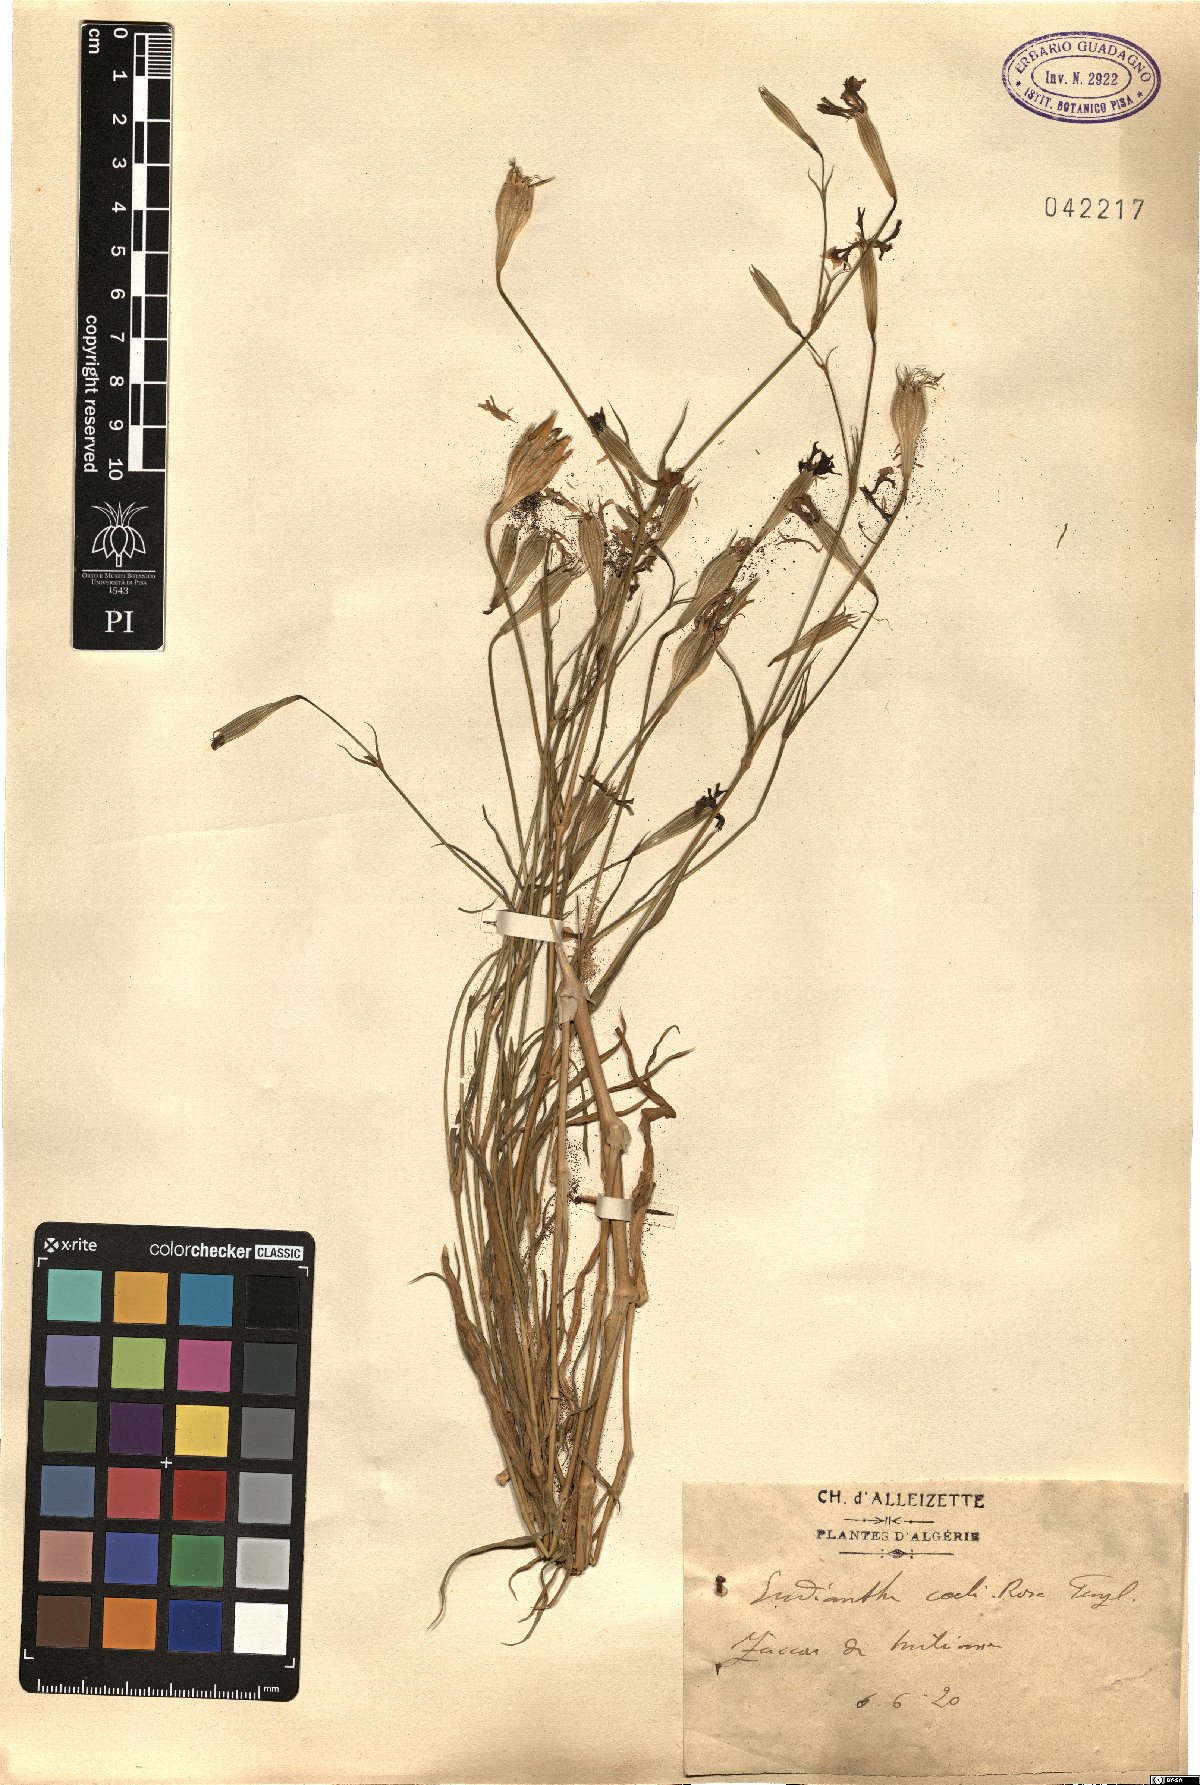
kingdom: Plantae
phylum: Tracheophyta
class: Magnoliopsida
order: Caryophyllales
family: Caryophyllaceae
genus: Eudianthe
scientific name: Eudianthe coeli-rosa
